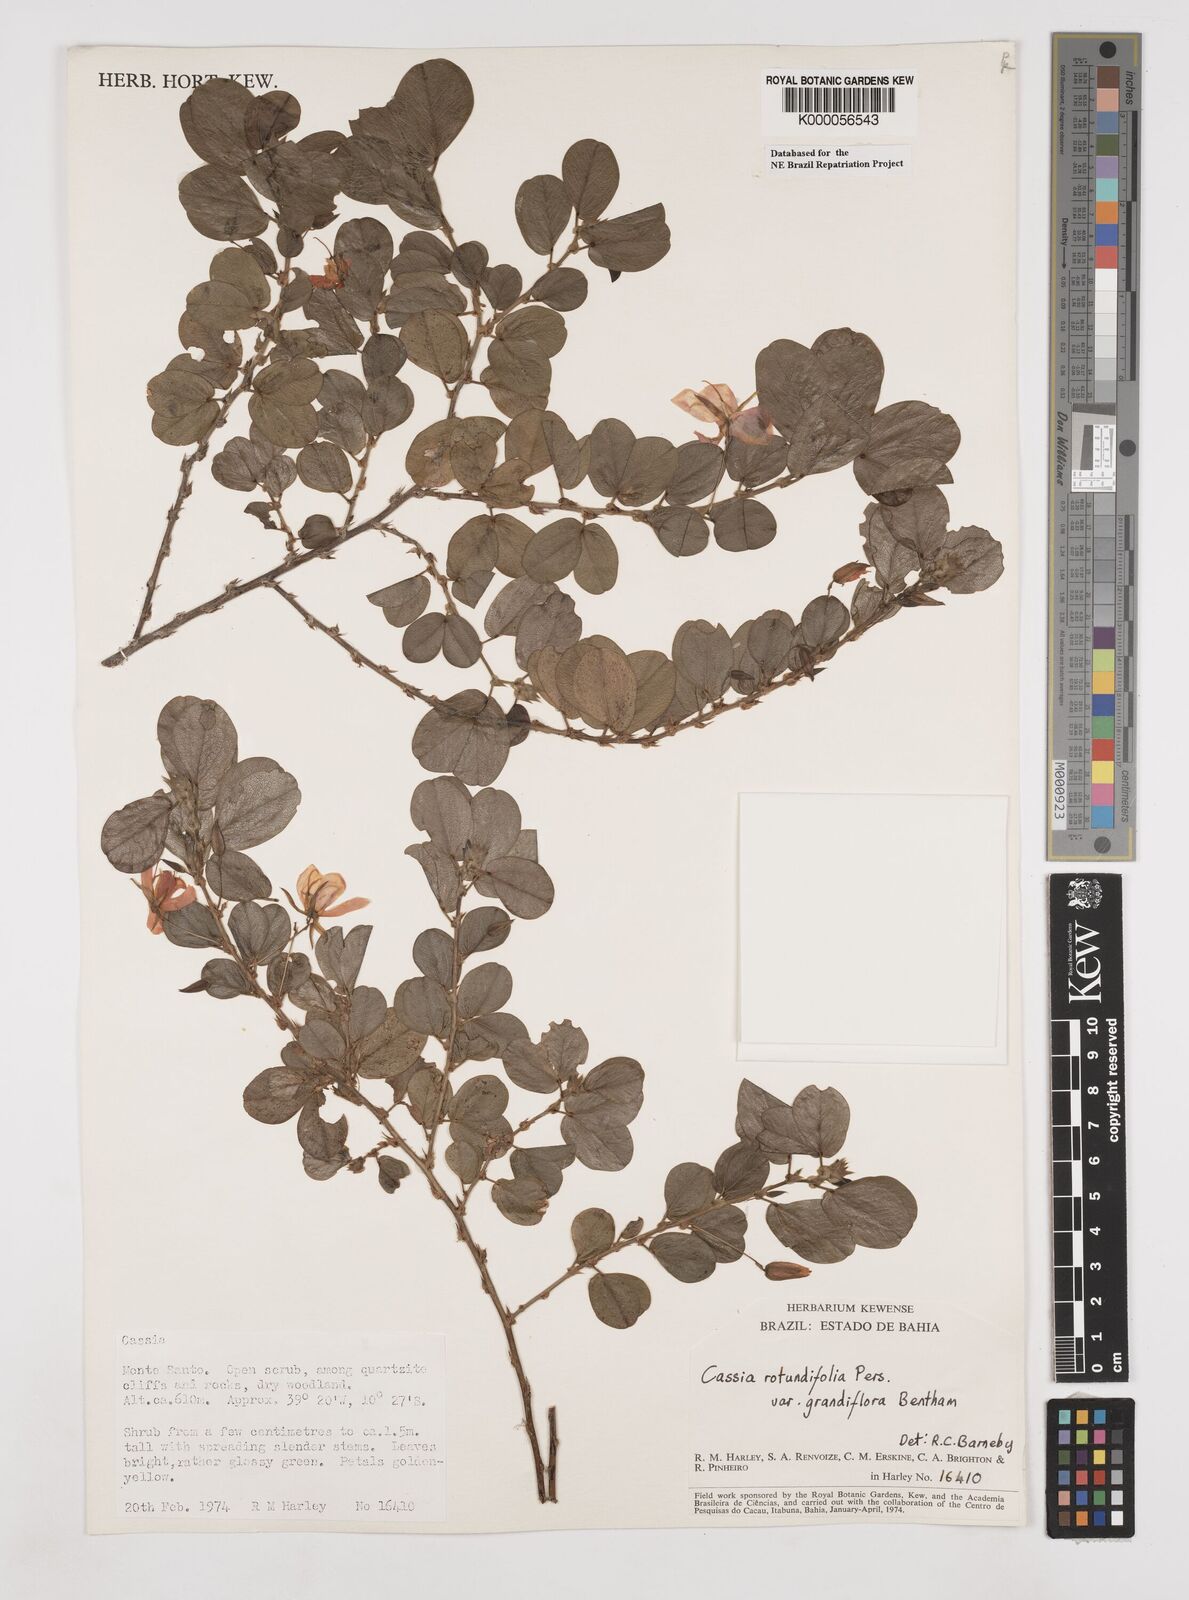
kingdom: Plantae
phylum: Tracheophyta
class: Magnoliopsida
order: Fabales
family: Fabaceae
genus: Chamaecrista
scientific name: Chamaecrista rotundifolia
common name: Round-leaf cassia
